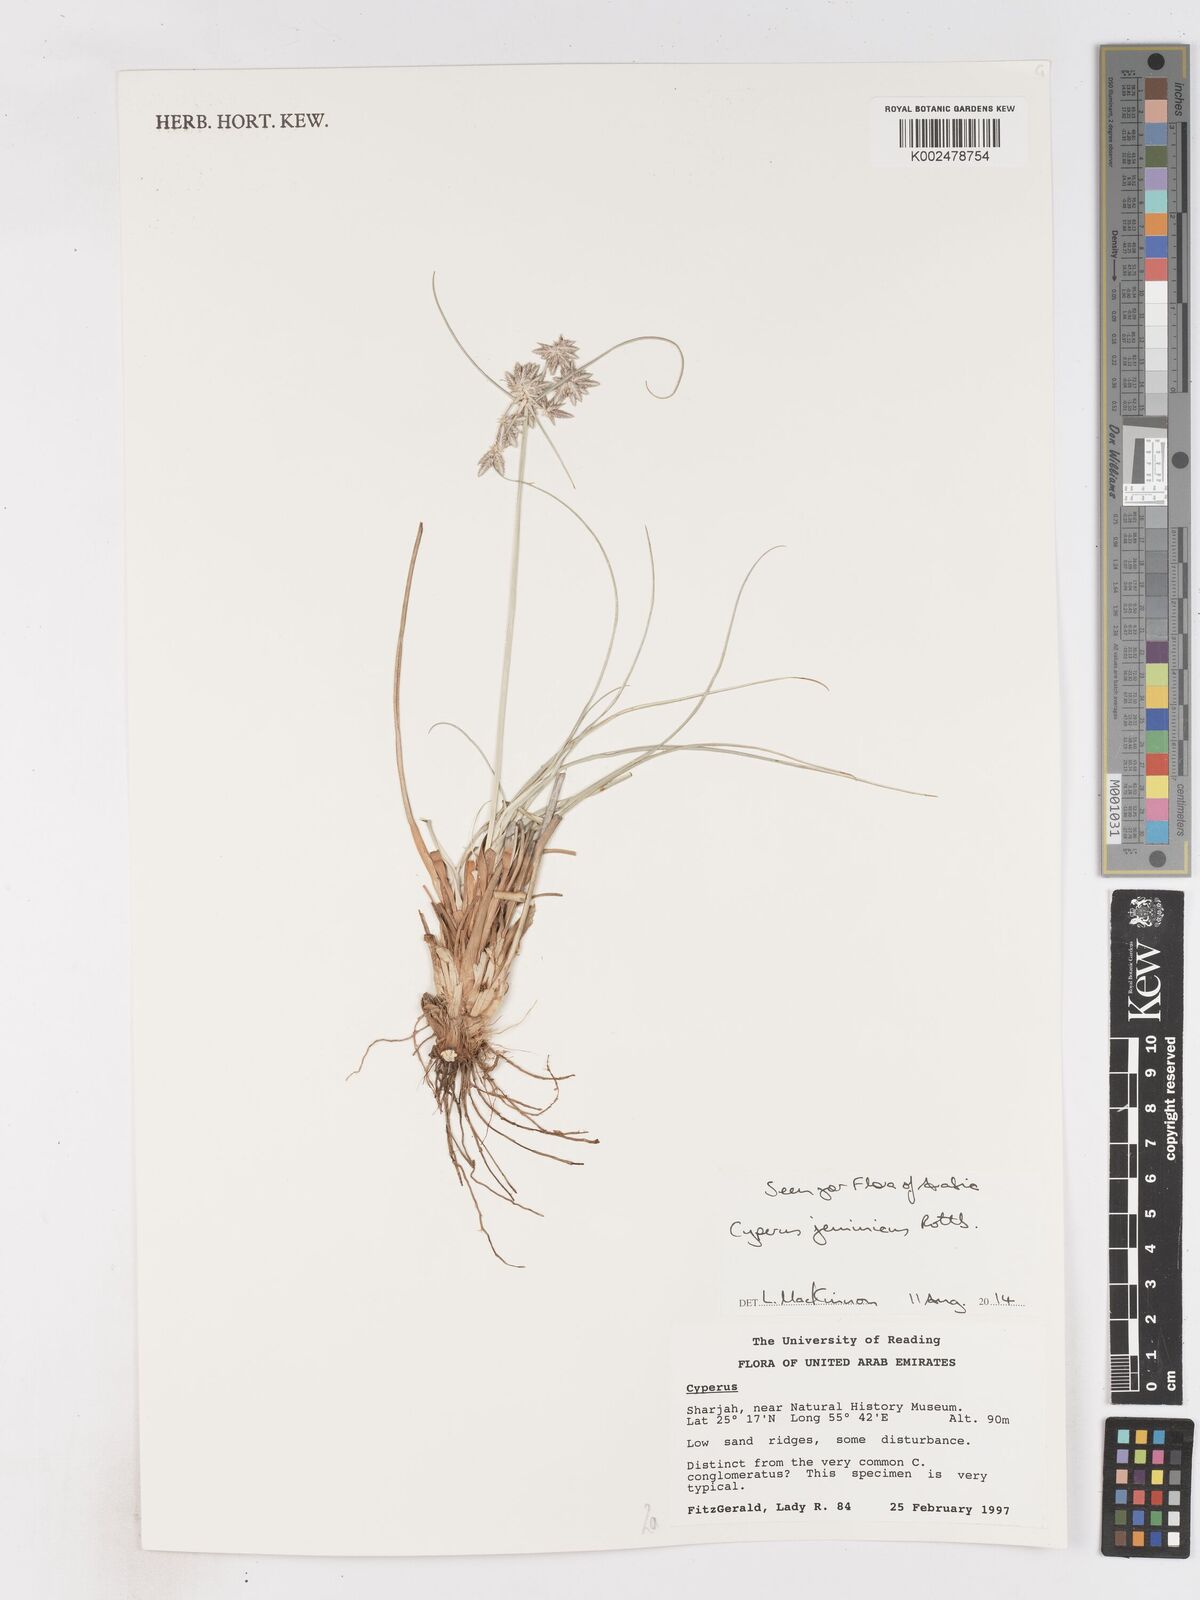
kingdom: Plantae
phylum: Tracheophyta
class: Liliopsida
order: Poales
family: Cyperaceae
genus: Cyperus
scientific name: Cyperus jeminicus
